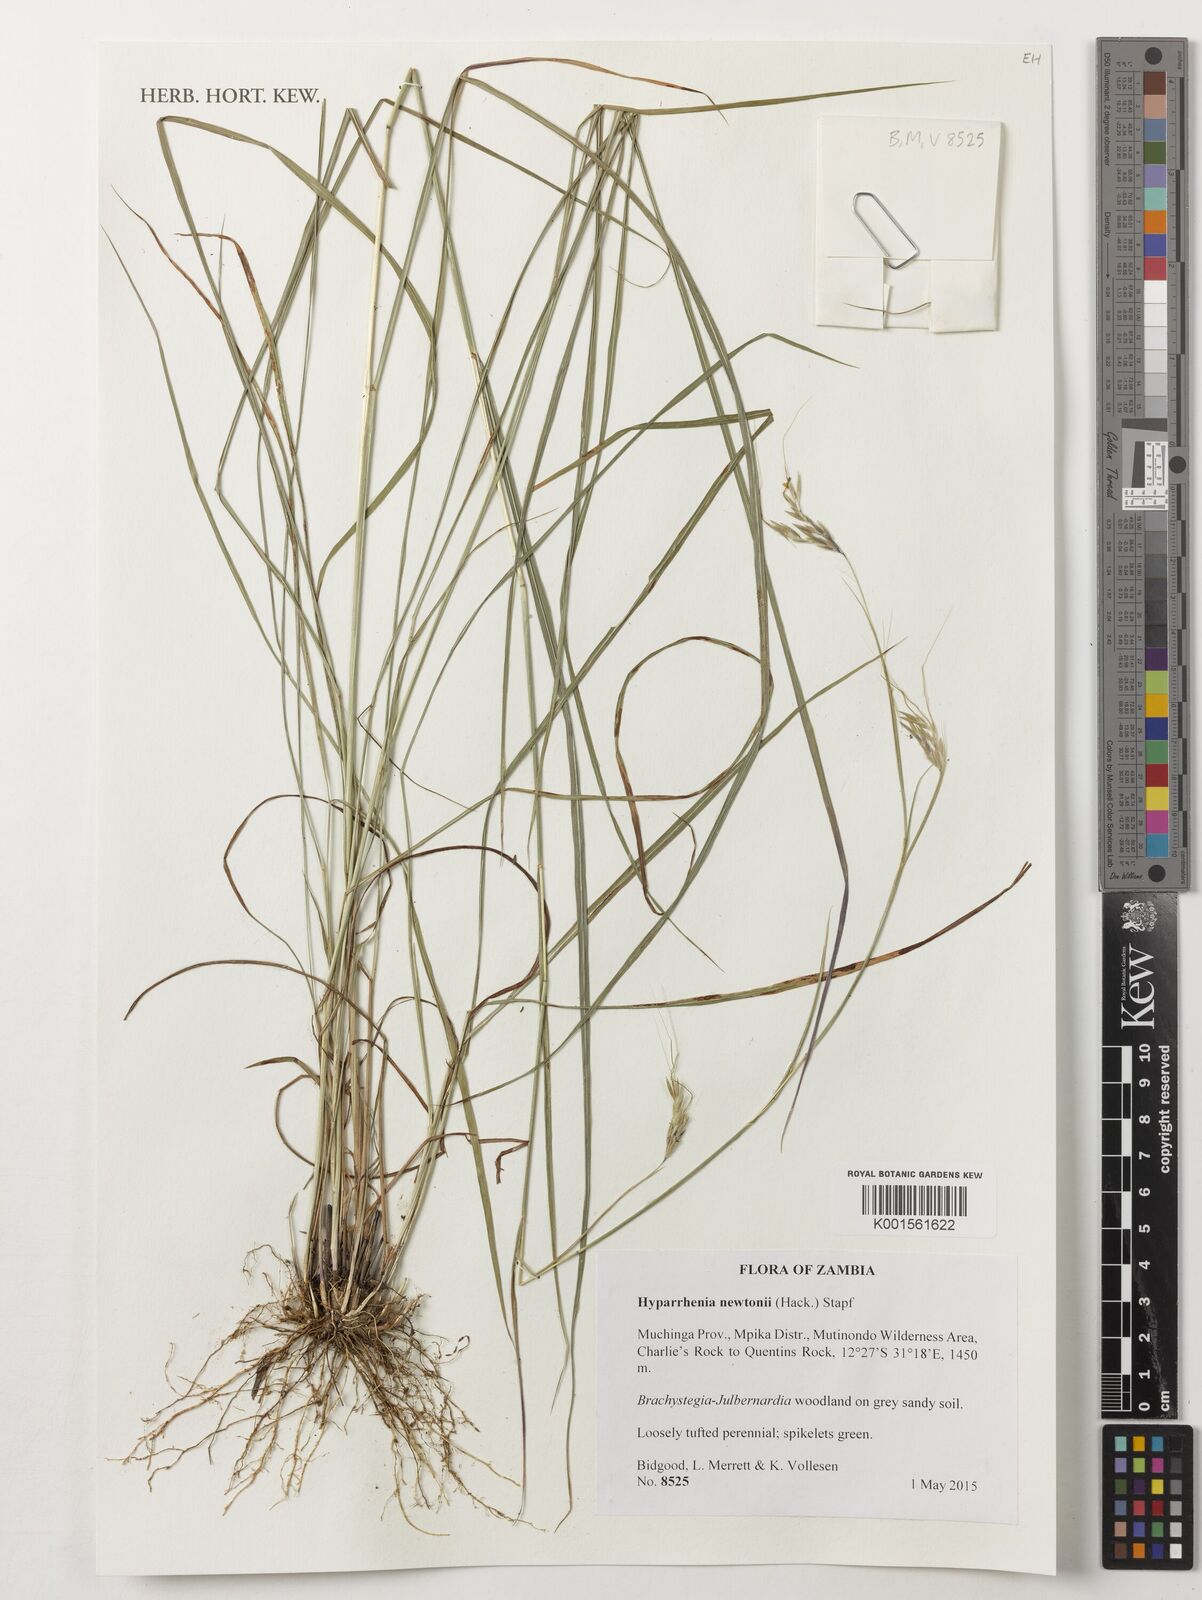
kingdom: Plantae
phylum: Tracheophyta
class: Liliopsida
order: Poales
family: Poaceae
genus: Hyparrhenia
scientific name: Hyparrhenia newtonii
